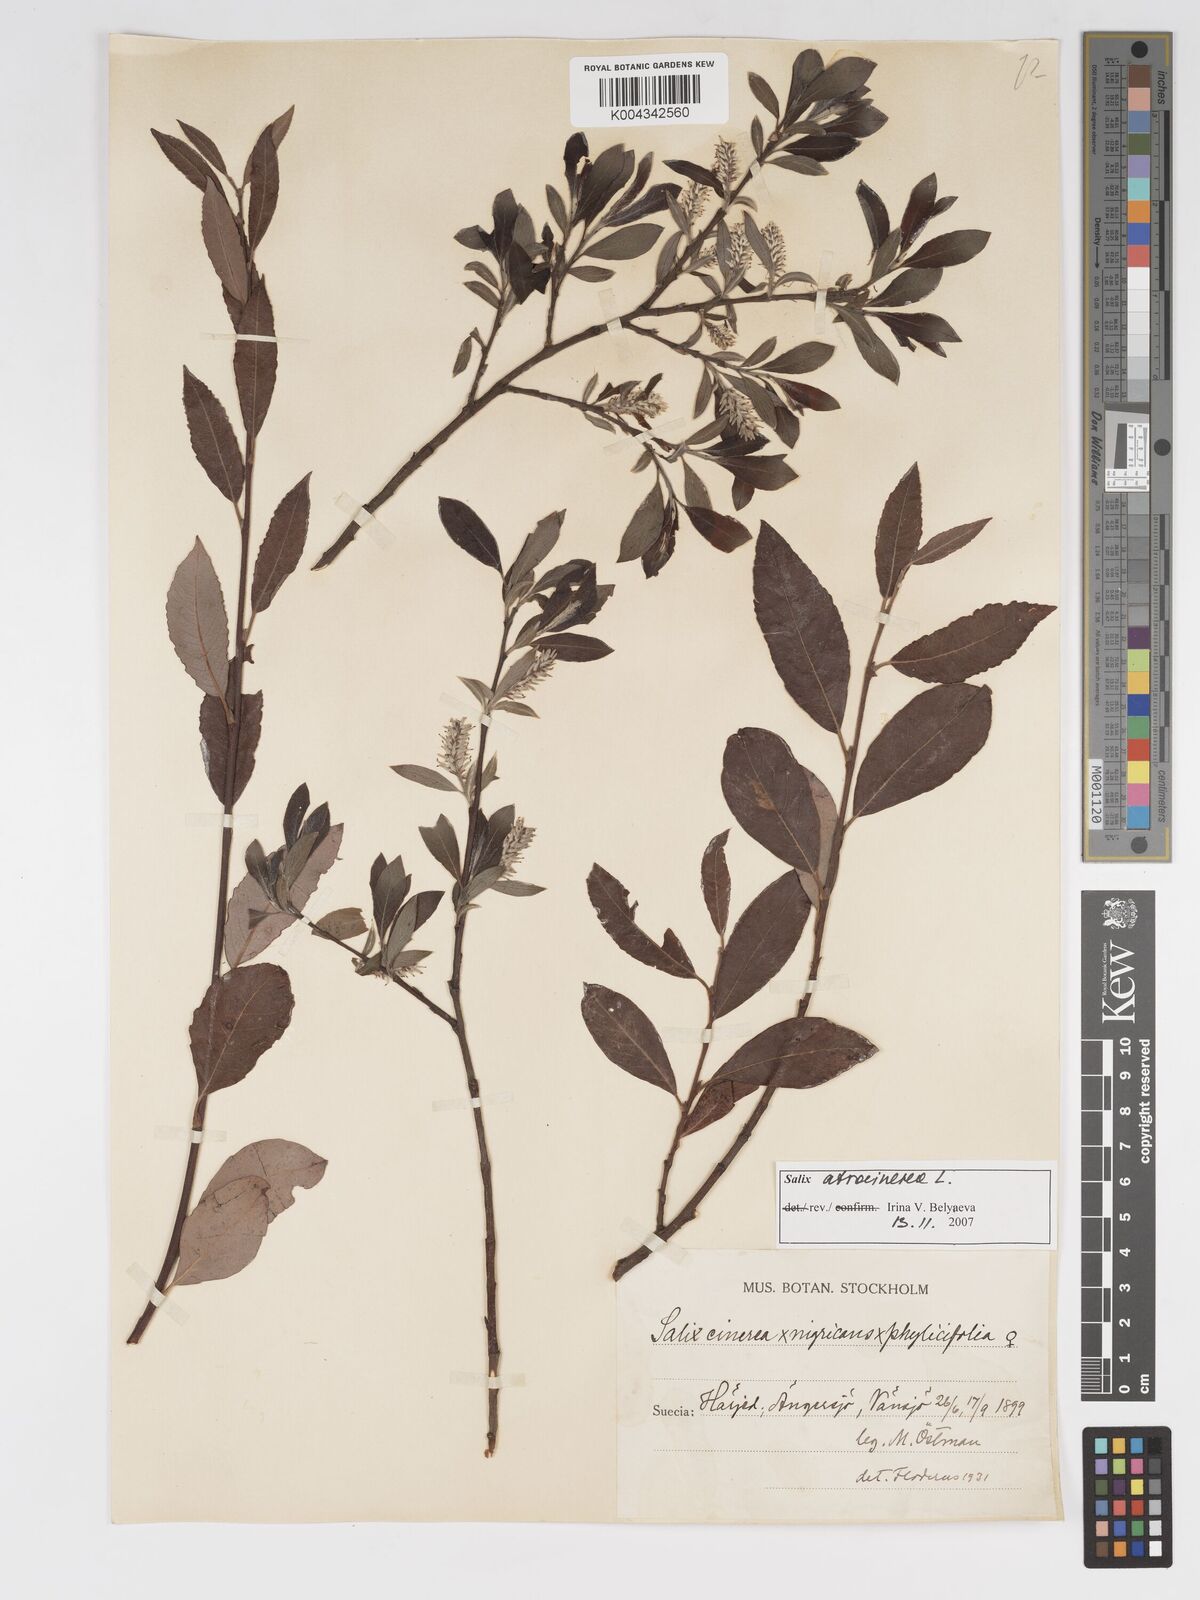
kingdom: Plantae
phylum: Tracheophyta
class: Magnoliopsida
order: Malpighiales
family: Salicaceae
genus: Salix
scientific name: Salix cinerea
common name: Common sallow
